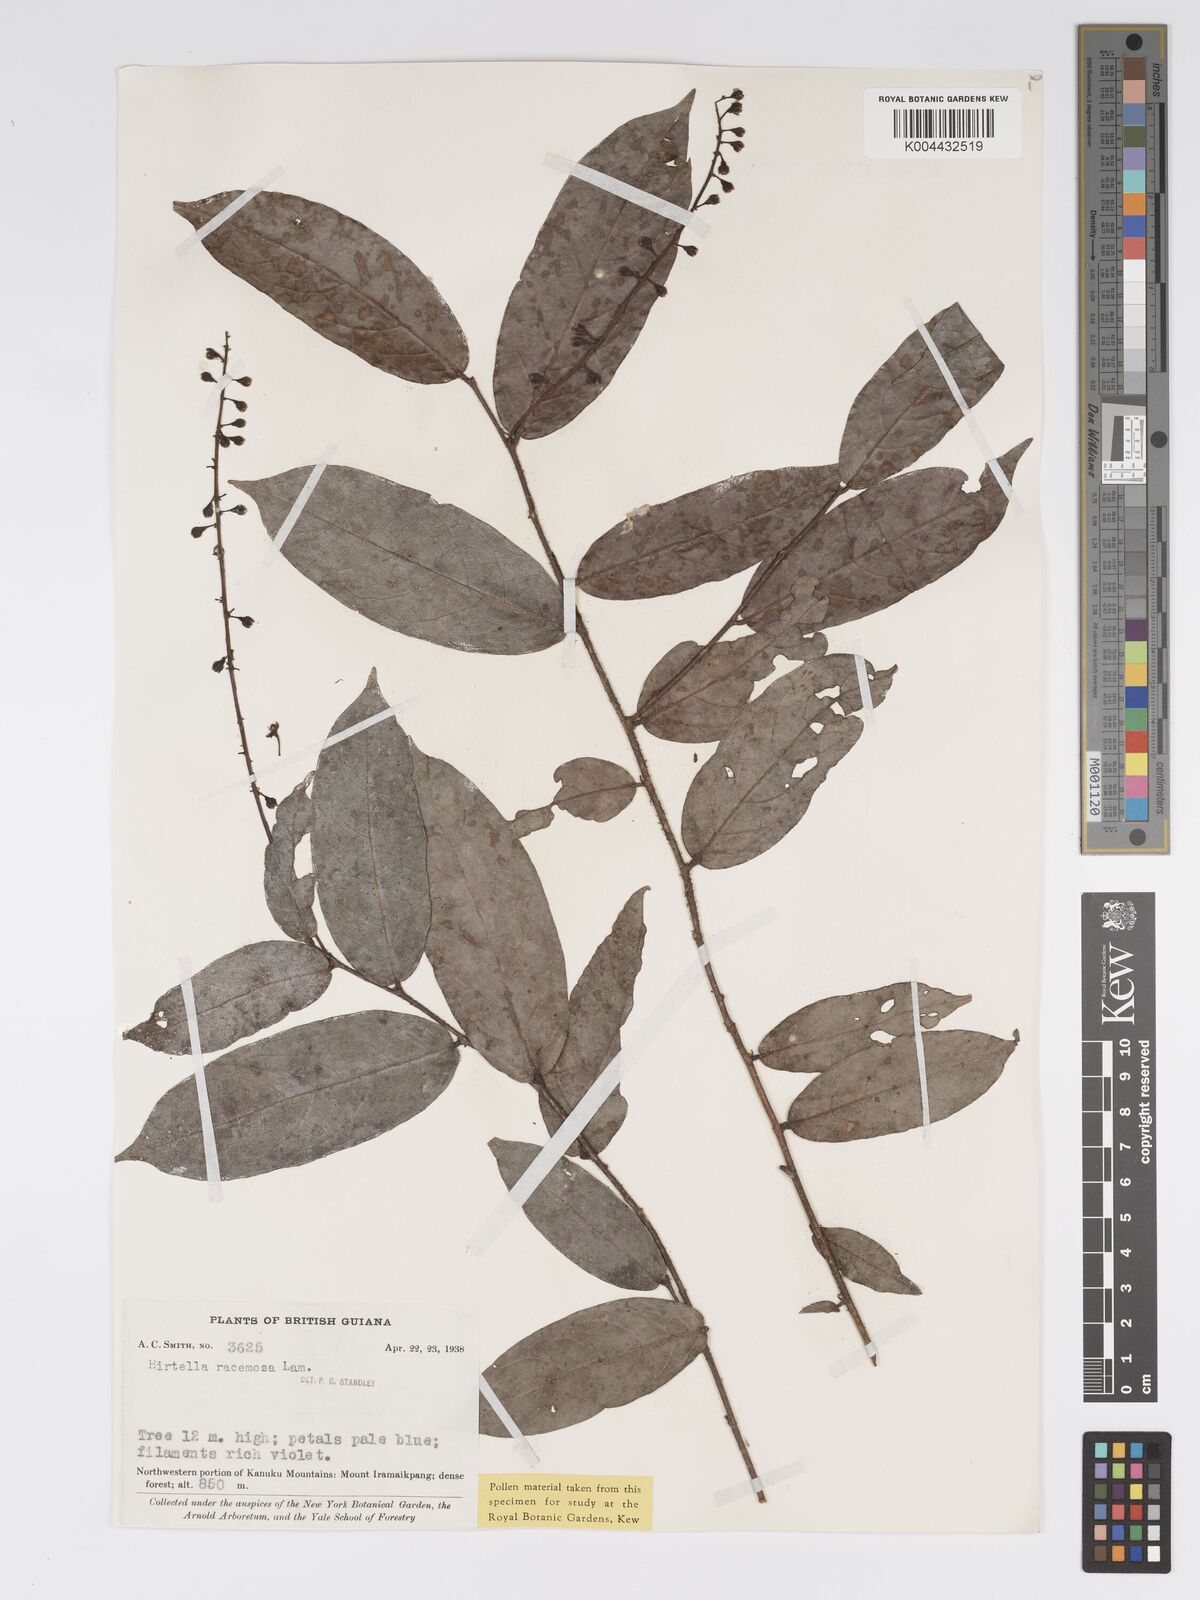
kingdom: Plantae
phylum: Tracheophyta
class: Magnoliopsida
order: Malpighiales
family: Chrysobalanaceae
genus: Hirtella
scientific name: Hirtella
